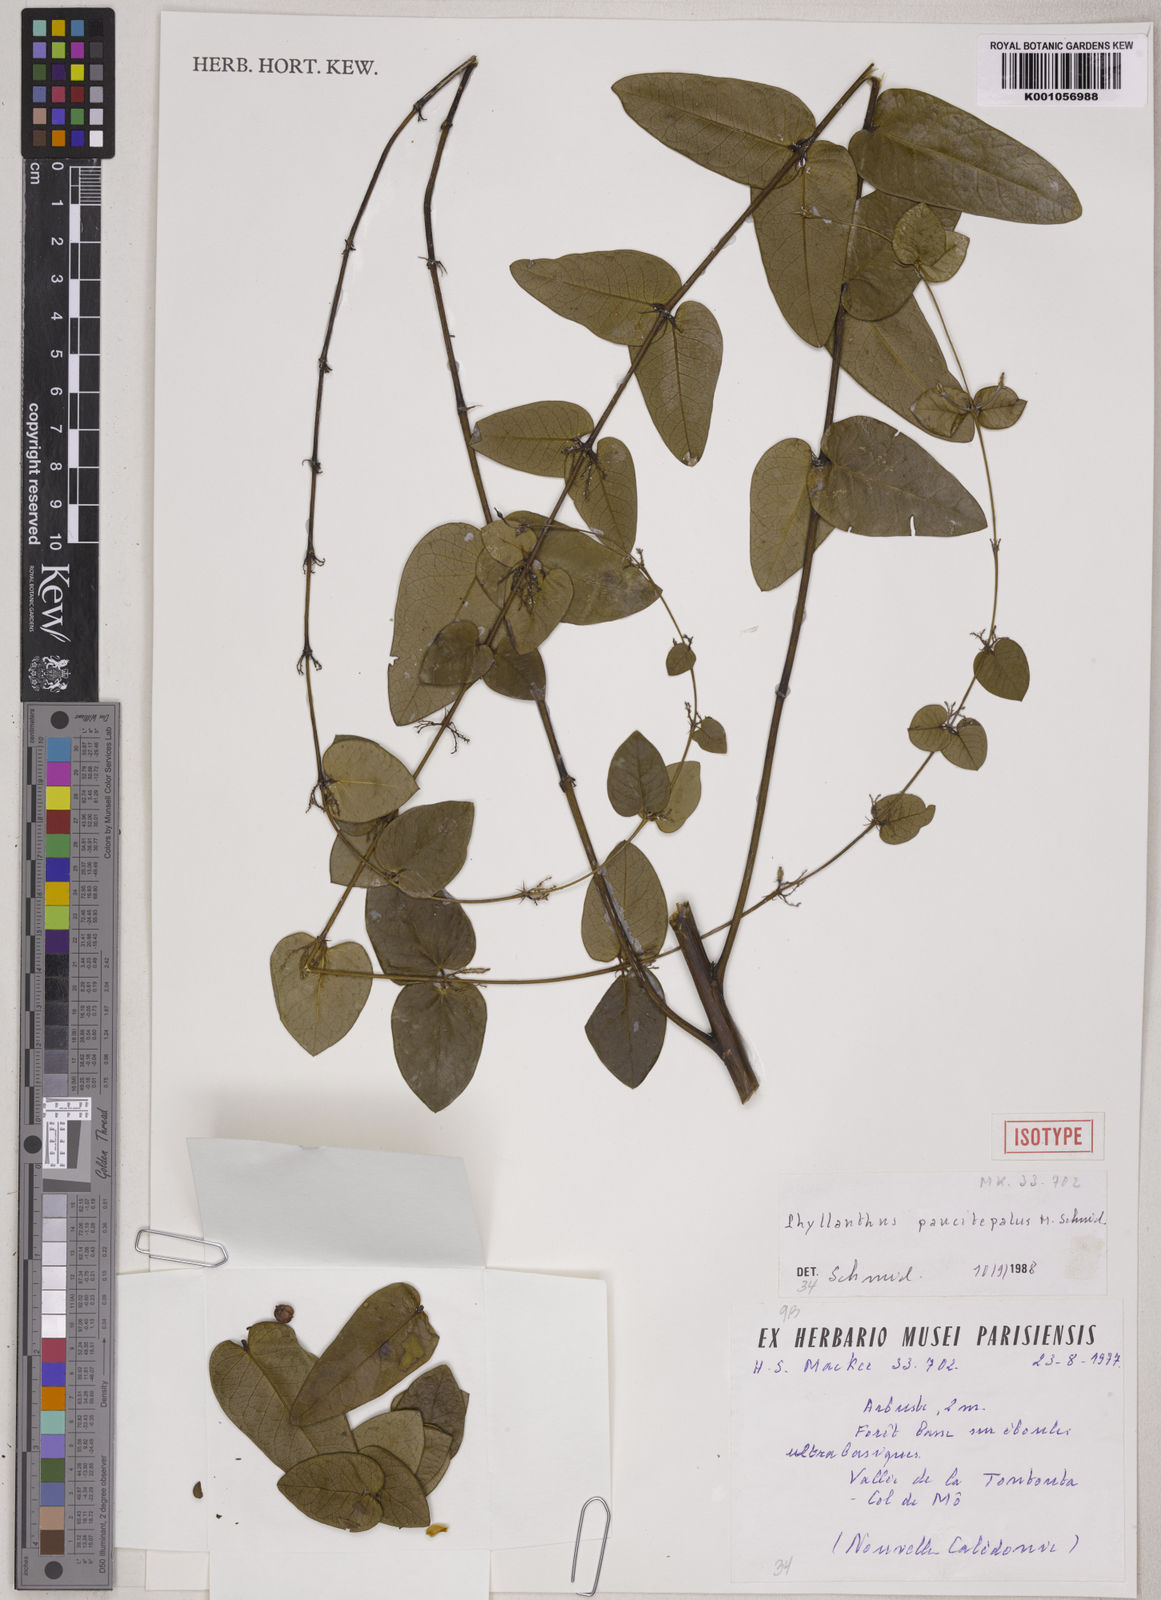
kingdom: Plantae
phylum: Tracheophyta
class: Magnoliopsida
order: Malpighiales
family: Phyllanthaceae
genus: Phyllanthus
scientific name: Phyllanthus paucitepalus
